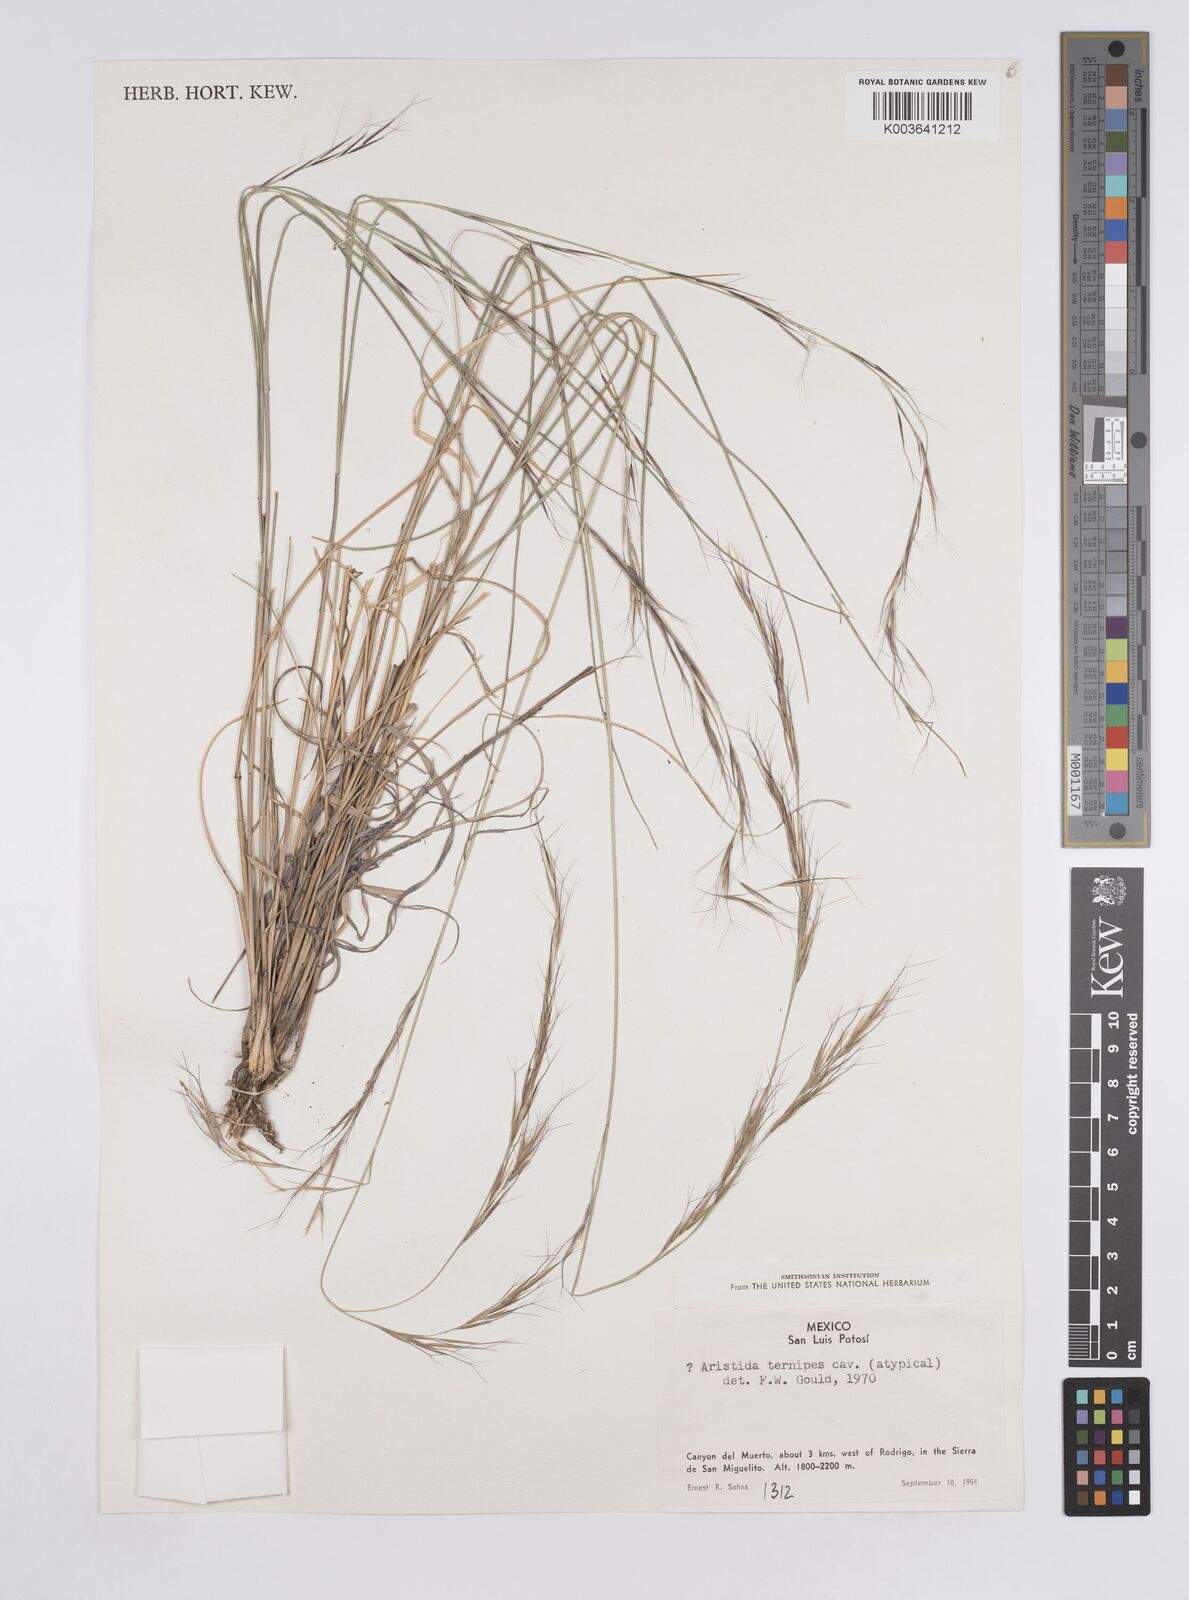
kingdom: Plantae
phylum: Tracheophyta
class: Liliopsida
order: Poales
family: Poaceae
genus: Aristida
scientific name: Aristida
